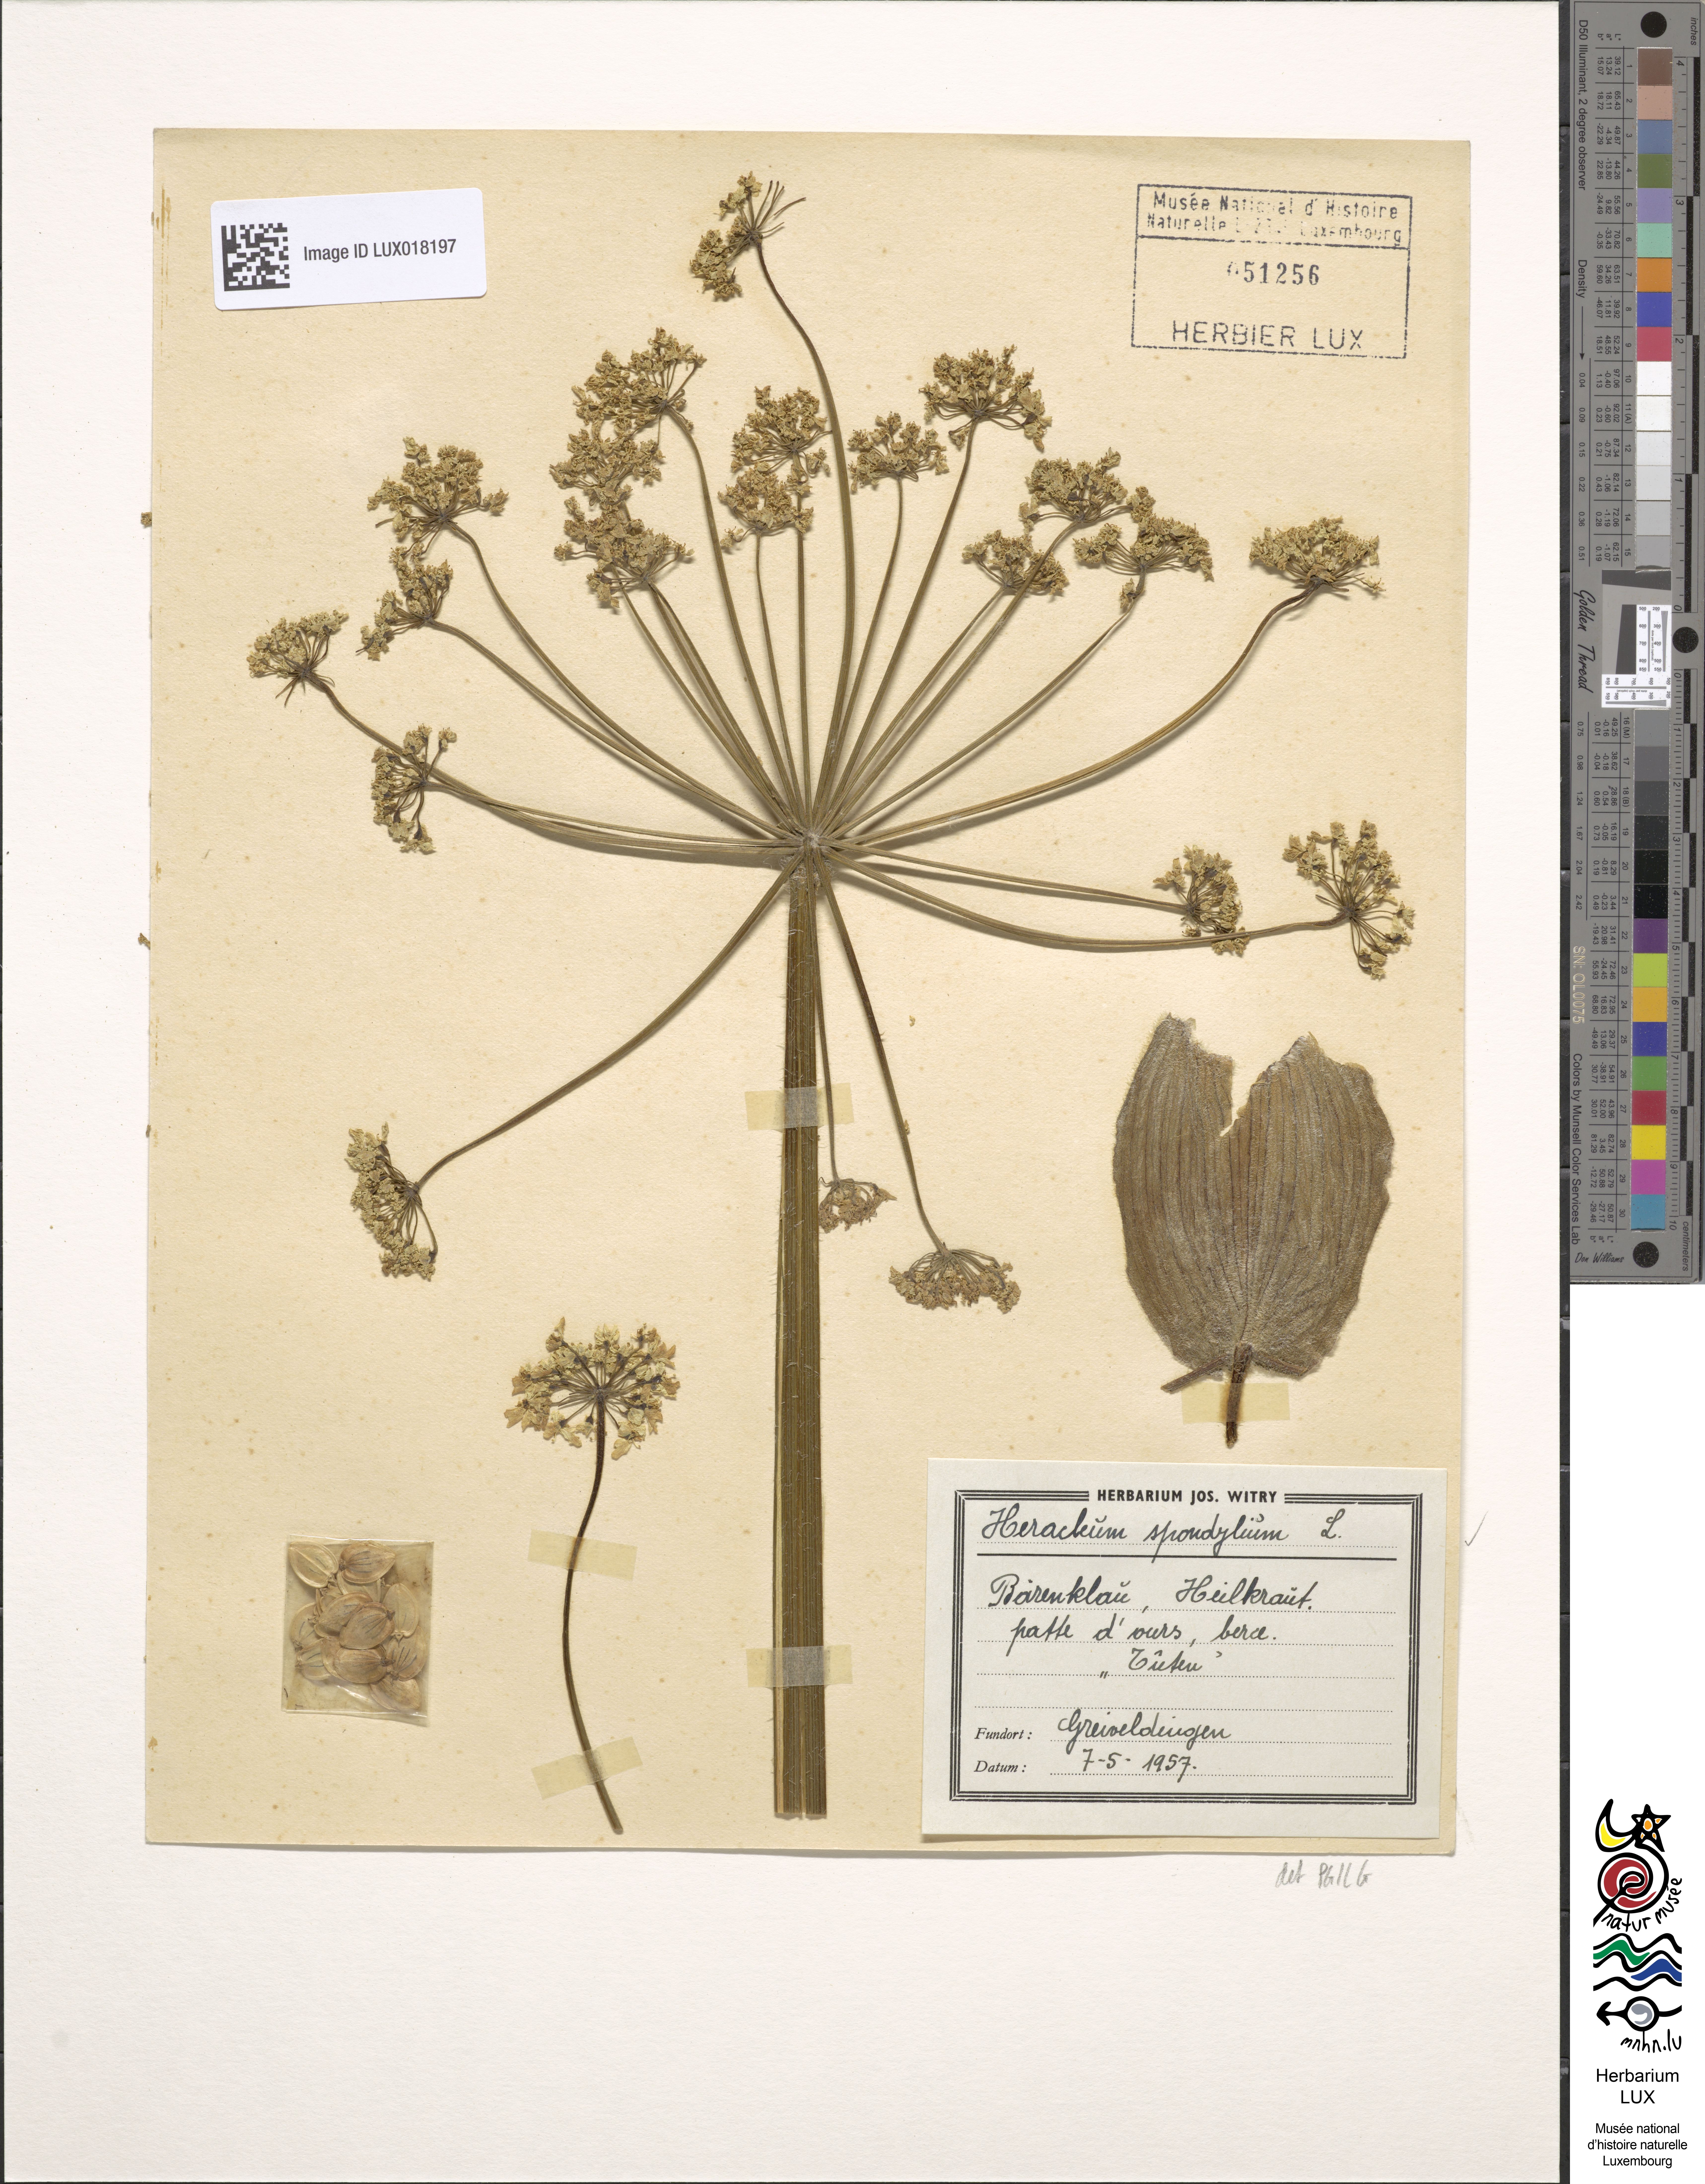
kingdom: Plantae
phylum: Tracheophyta
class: Magnoliopsida
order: Apiales
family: Apiaceae
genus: Heracleum
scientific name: Heracleum sphondylium
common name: Hogweed
